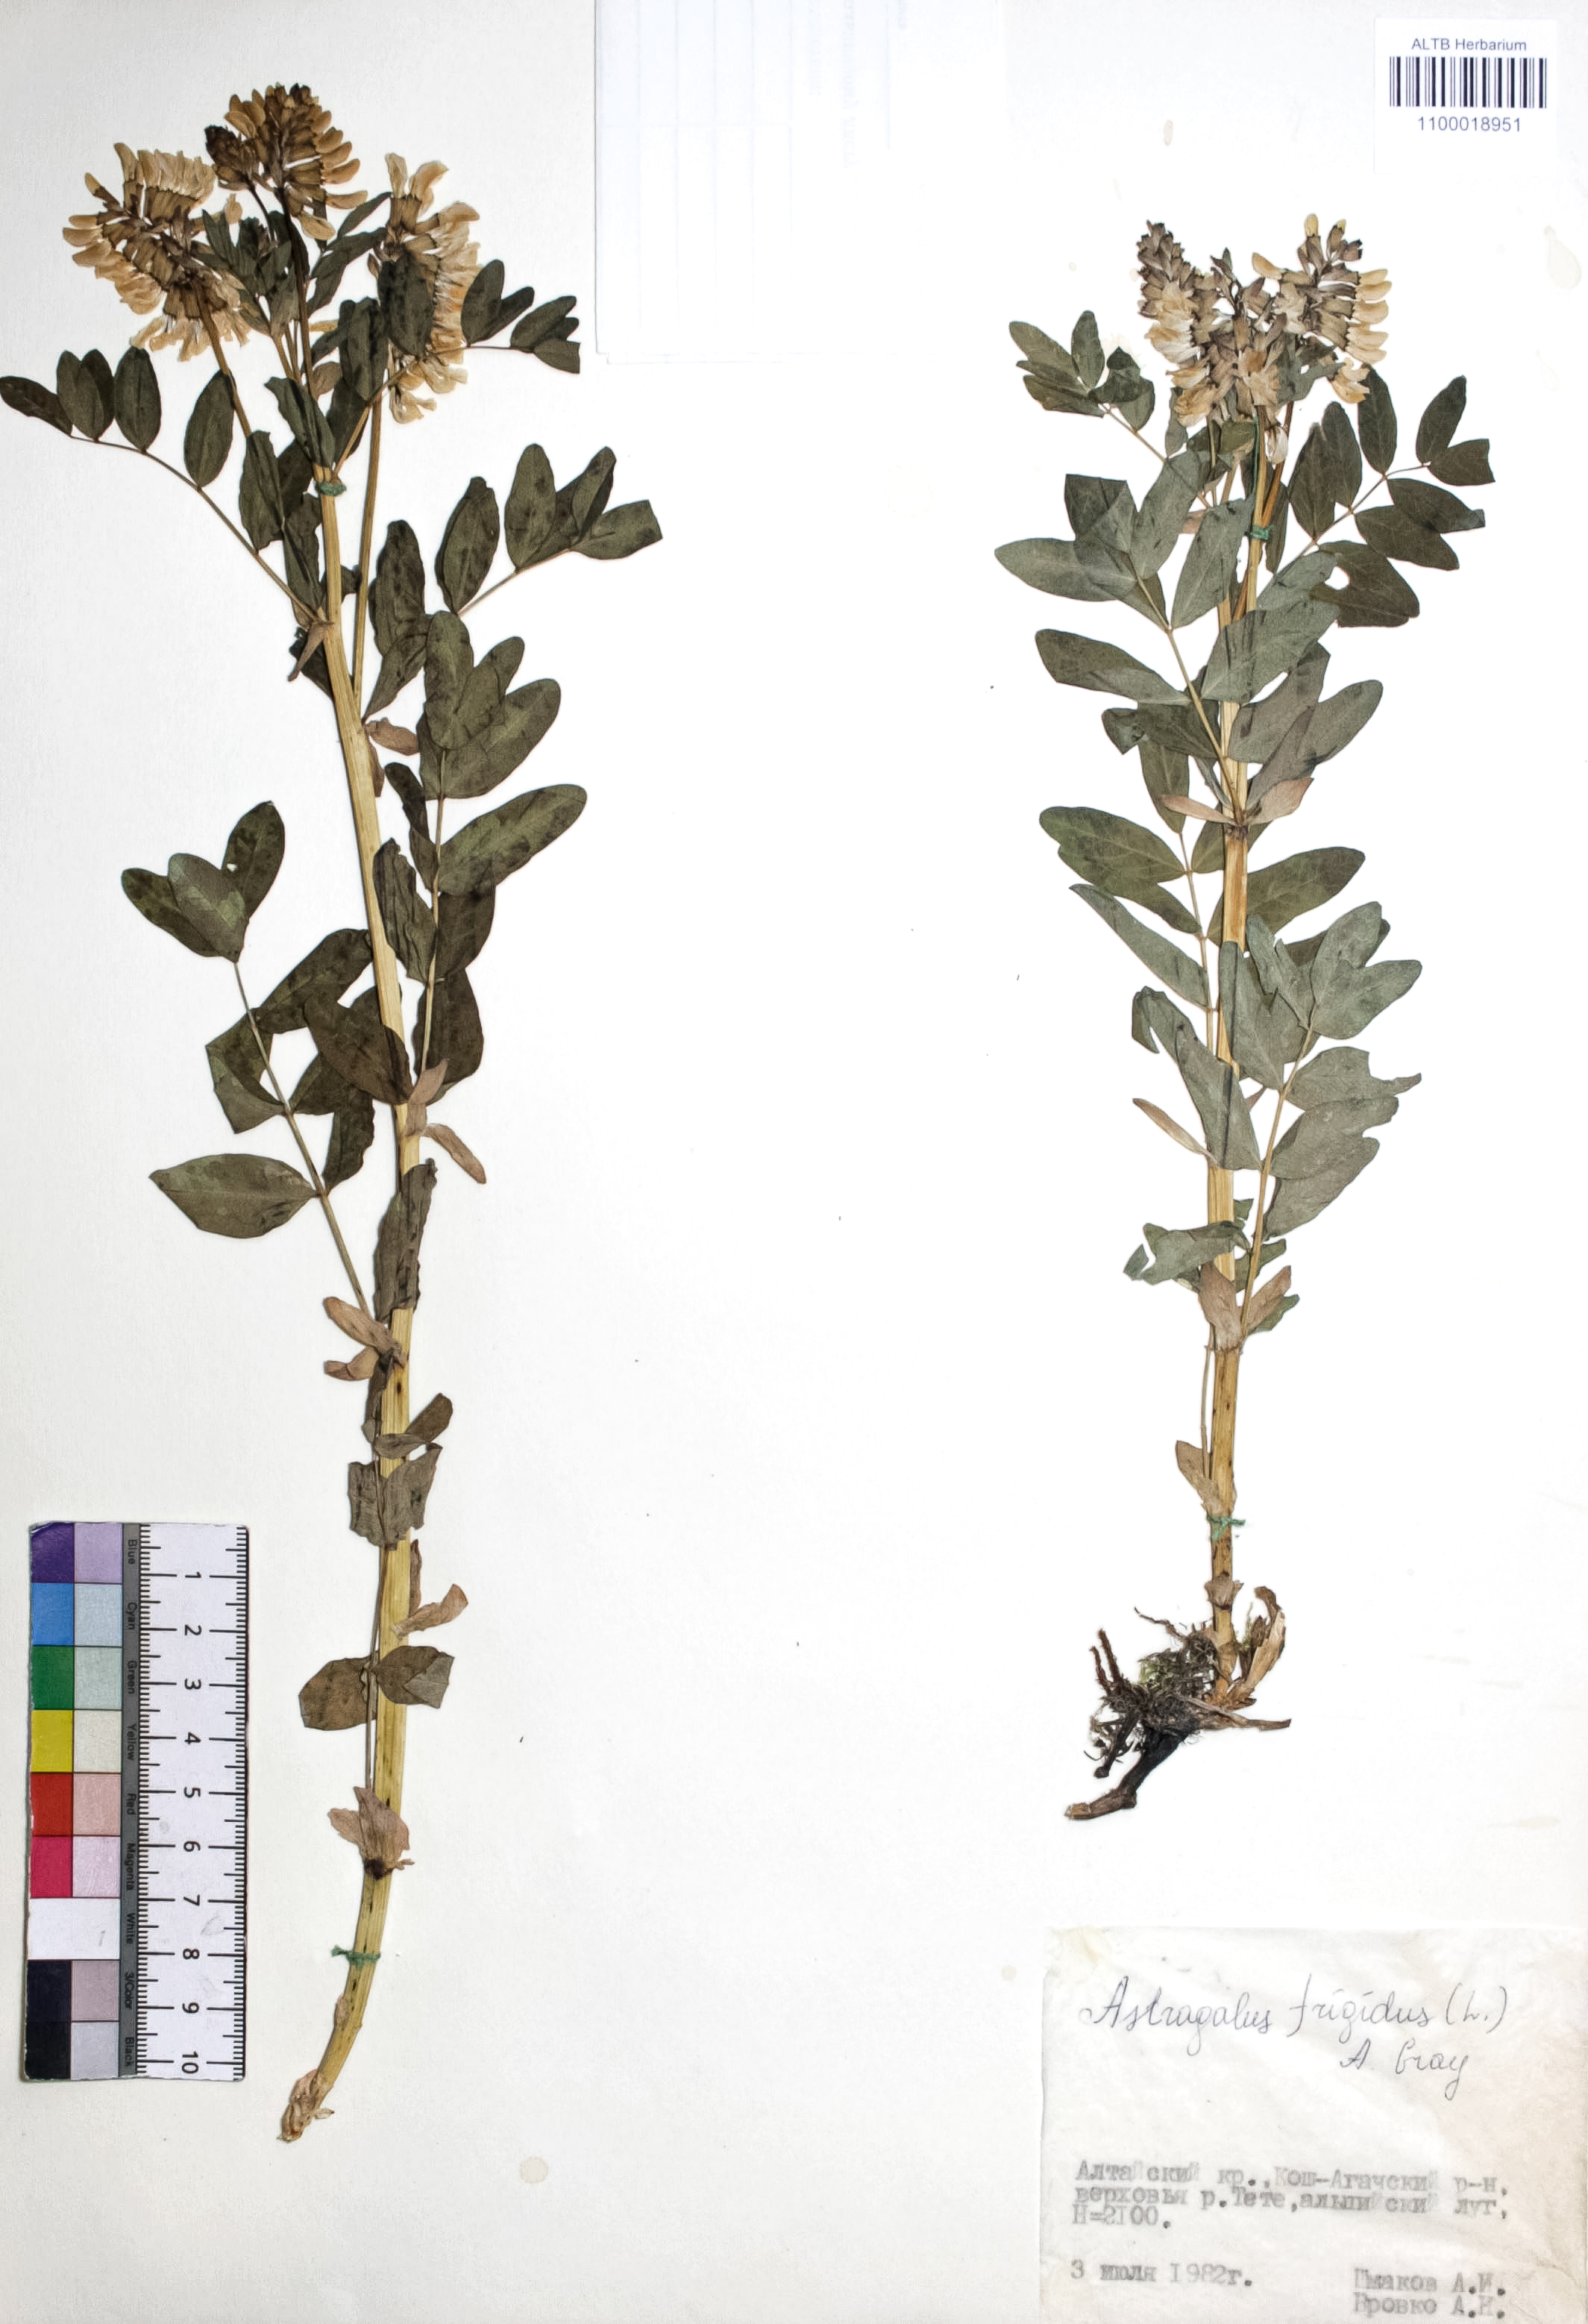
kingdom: Plantae
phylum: Tracheophyta
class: Magnoliopsida
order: Fabales
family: Fabaceae
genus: Astragalus
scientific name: Astragalus frigidus
